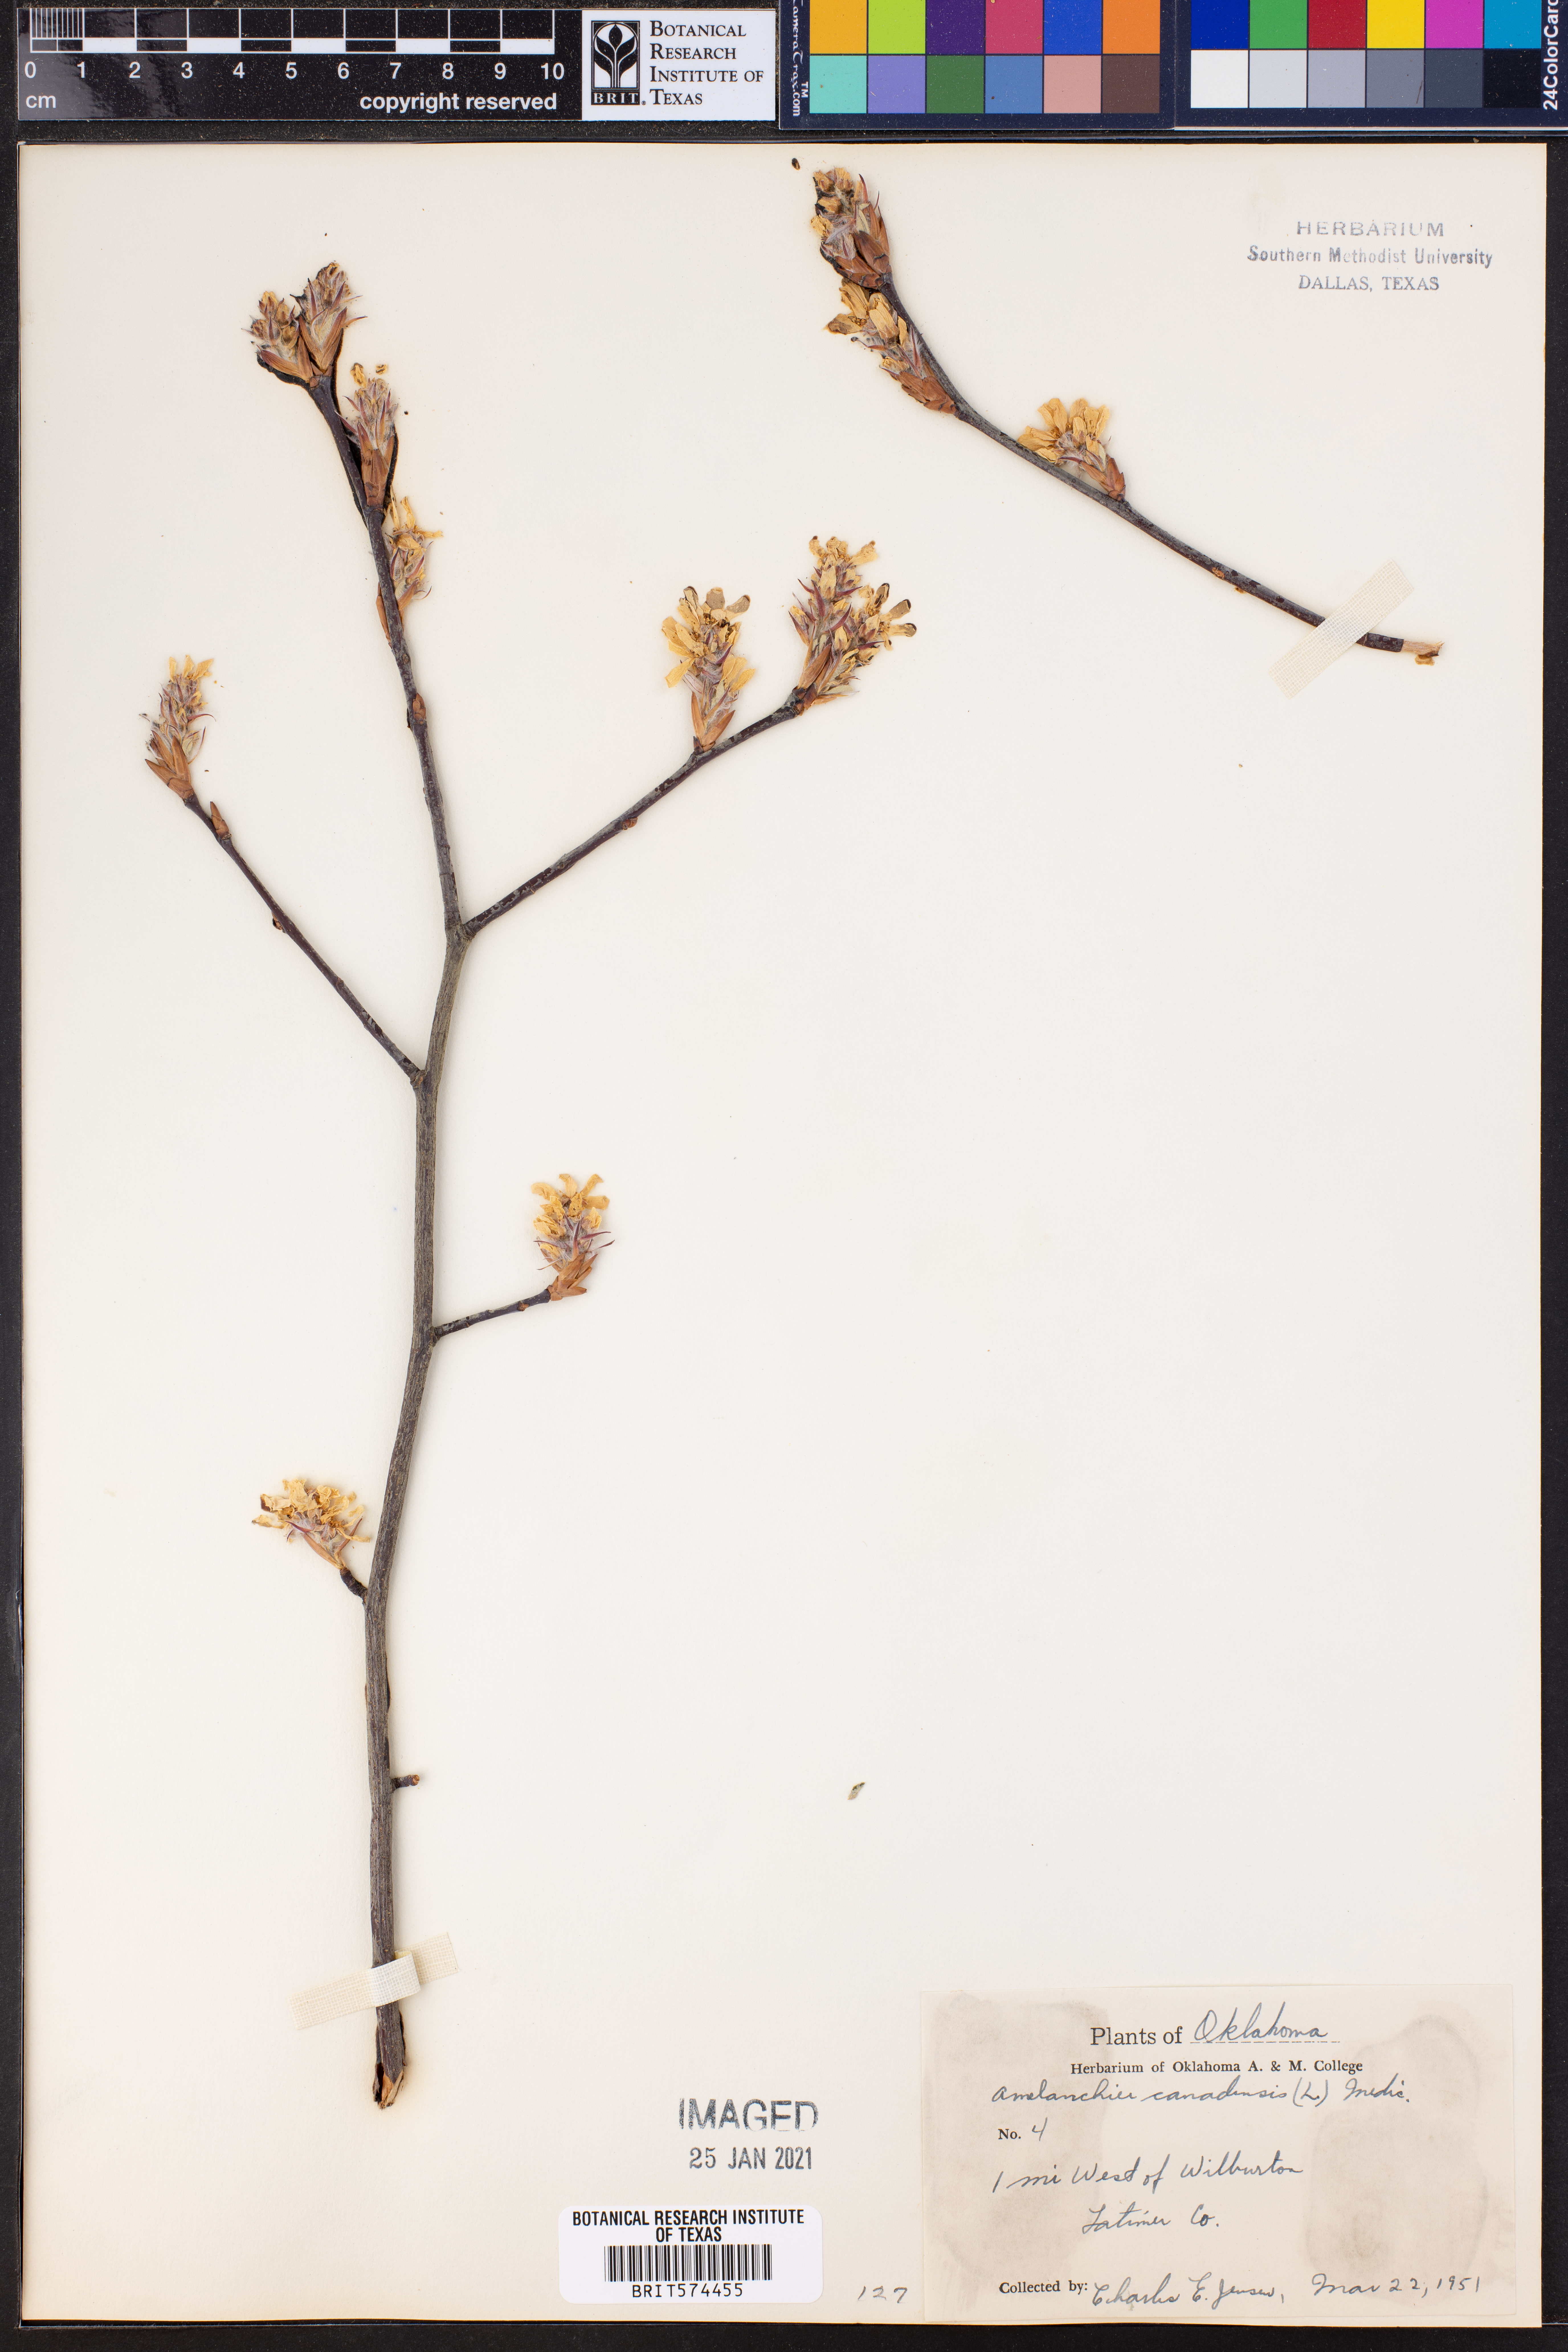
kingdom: Plantae
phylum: Tracheophyta
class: Magnoliopsida
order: Rosales
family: Rosaceae
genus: Amelanchier
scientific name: Amelanchier canadensis
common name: Thicket serviceberry
